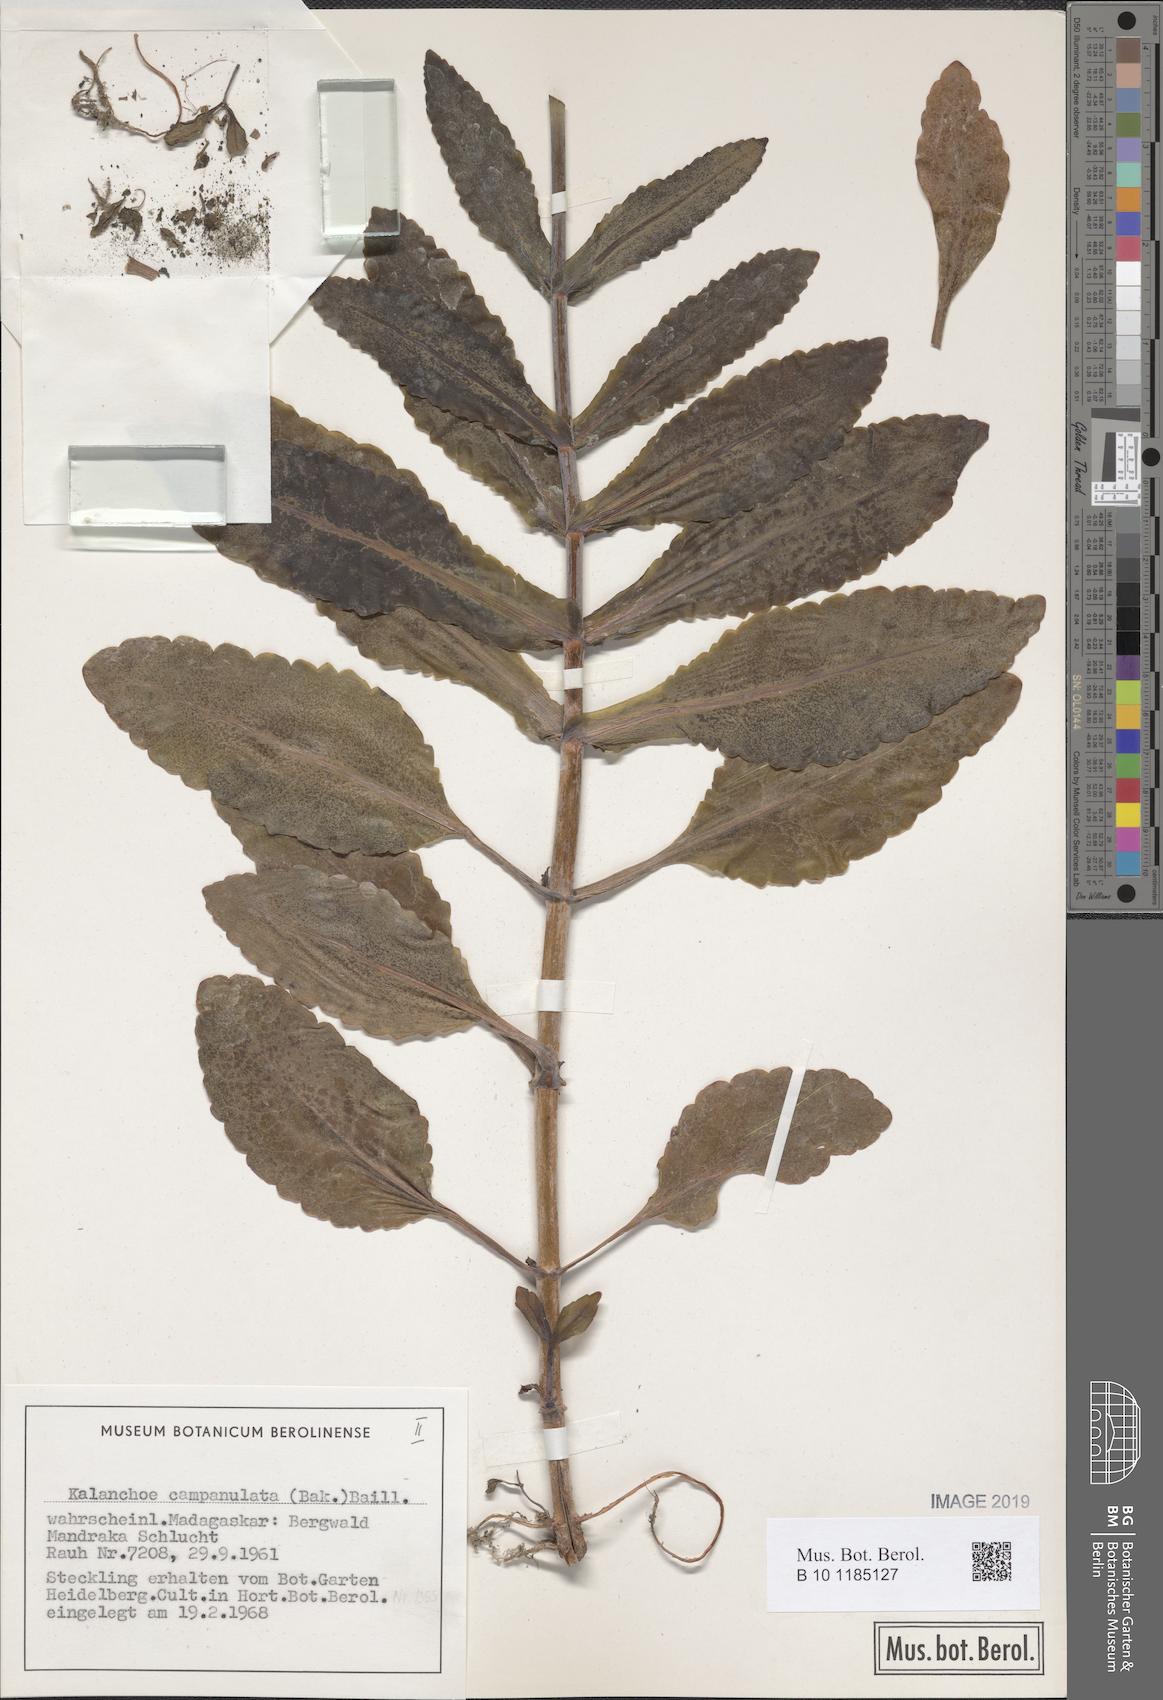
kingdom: Plantae
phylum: Tracheophyta
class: Magnoliopsida
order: Saxifragales
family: Crassulaceae
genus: Kalanchoe
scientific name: Kalanchoe campanulata
